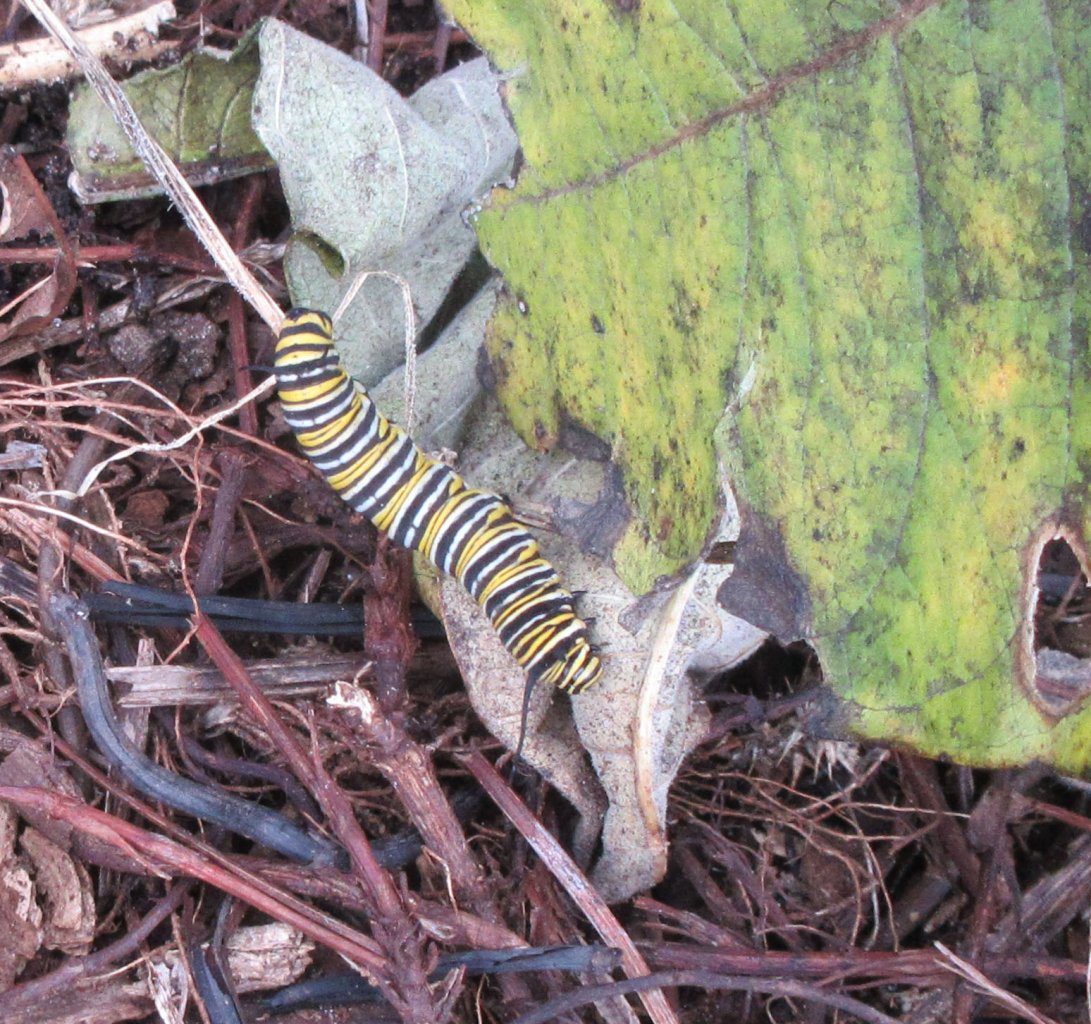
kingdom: Animalia
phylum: Arthropoda
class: Insecta
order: Lepidoptera
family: Nymphalidae
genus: Danaus
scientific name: Danaus plexippus
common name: Monarch
